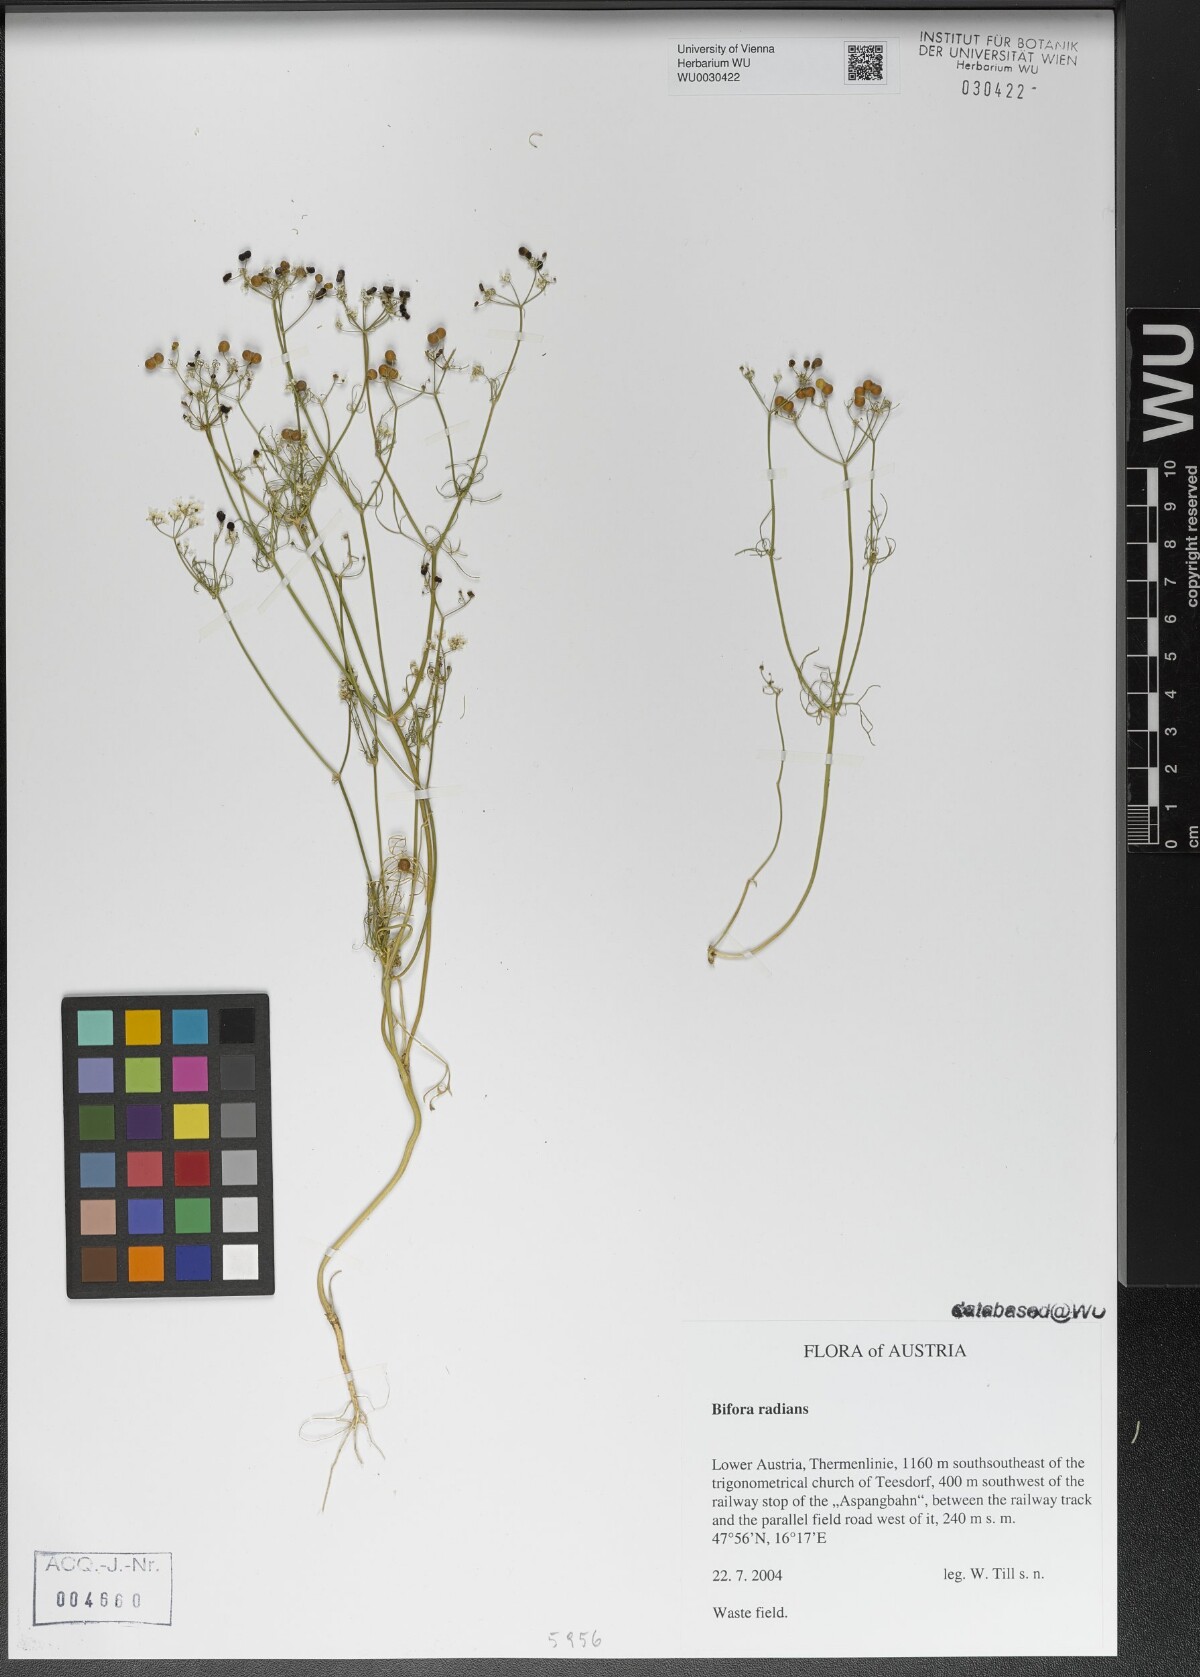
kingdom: Plantae
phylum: Tracheophyta
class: Magnoliopsida
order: Apiales
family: Apiaceae
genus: Bifora
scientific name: Bifora radians
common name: Wild bishop
